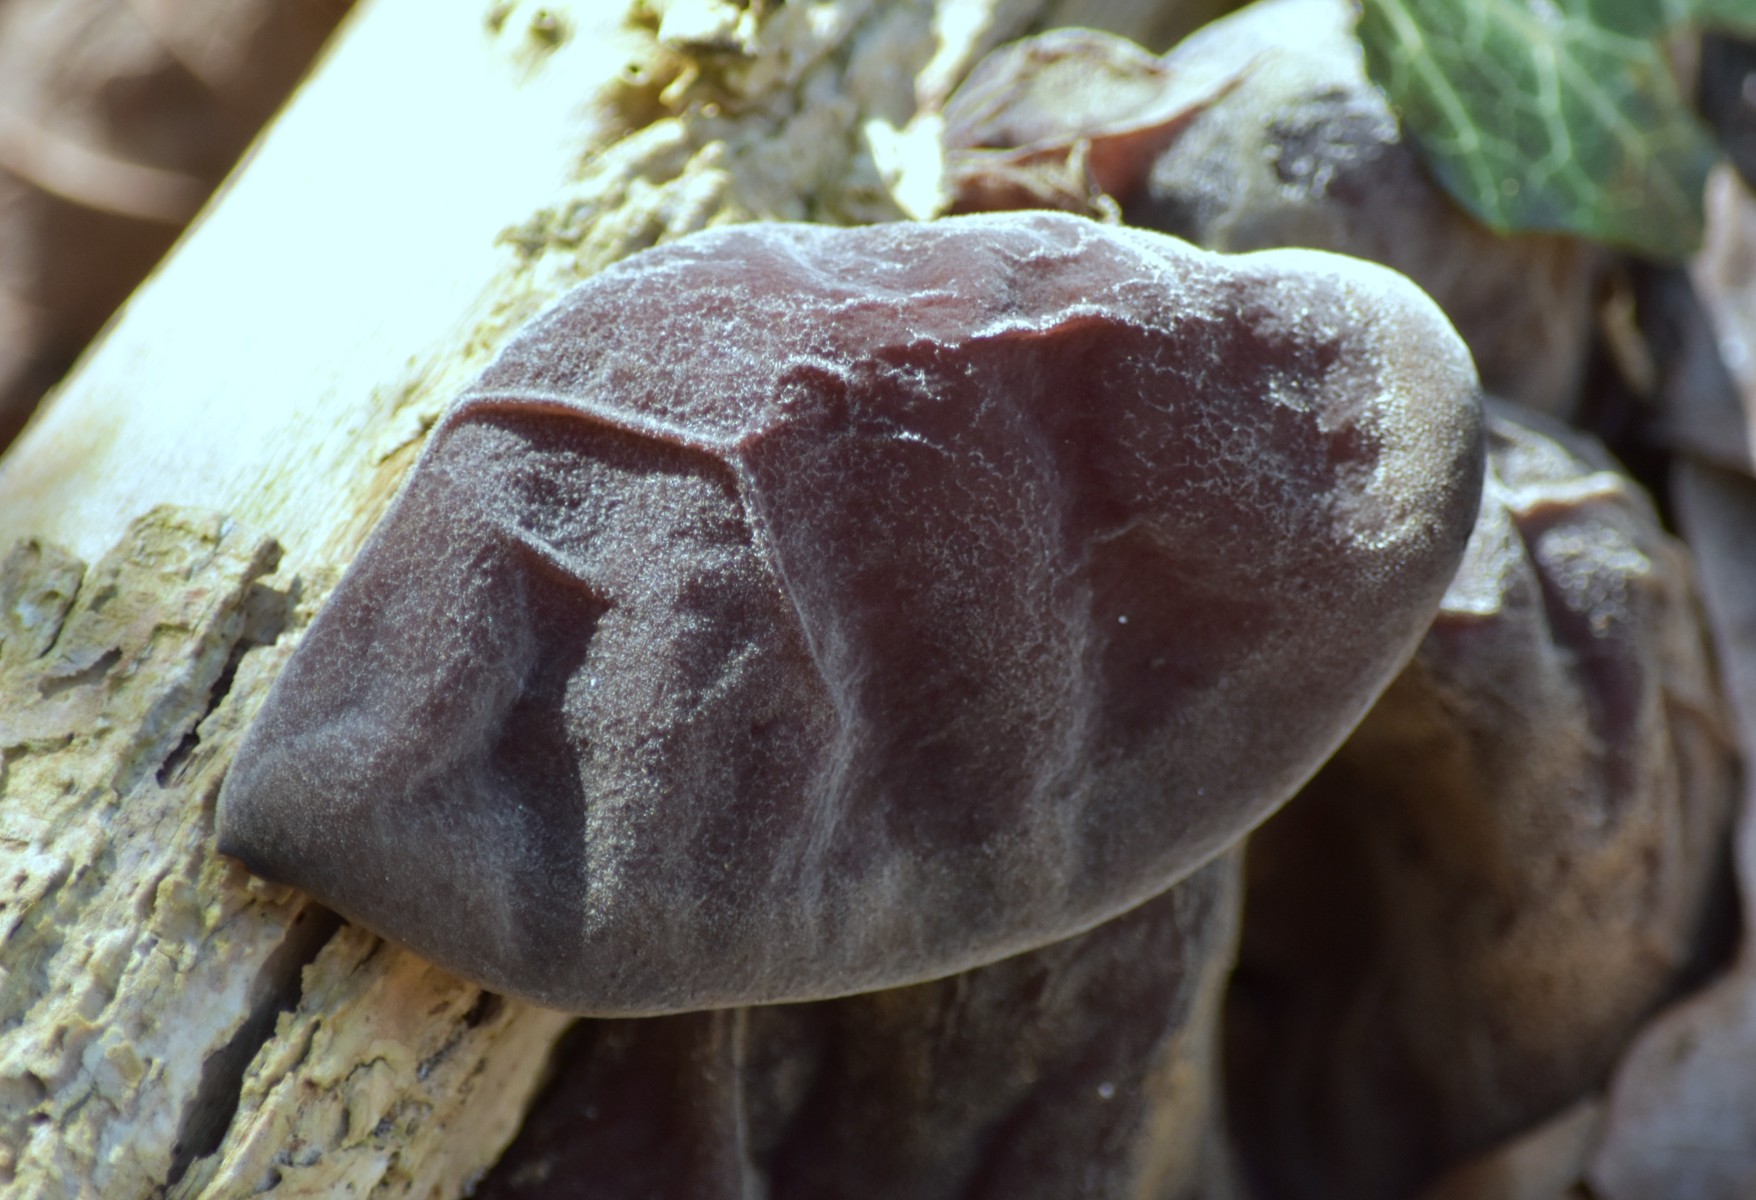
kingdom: Fungi
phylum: Basidiomycota
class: Agaricomycetes
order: Auriculariales
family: Auriculariaceae
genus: Auricularia
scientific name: Auricularia auricula-judae
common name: almindelig judasøre
